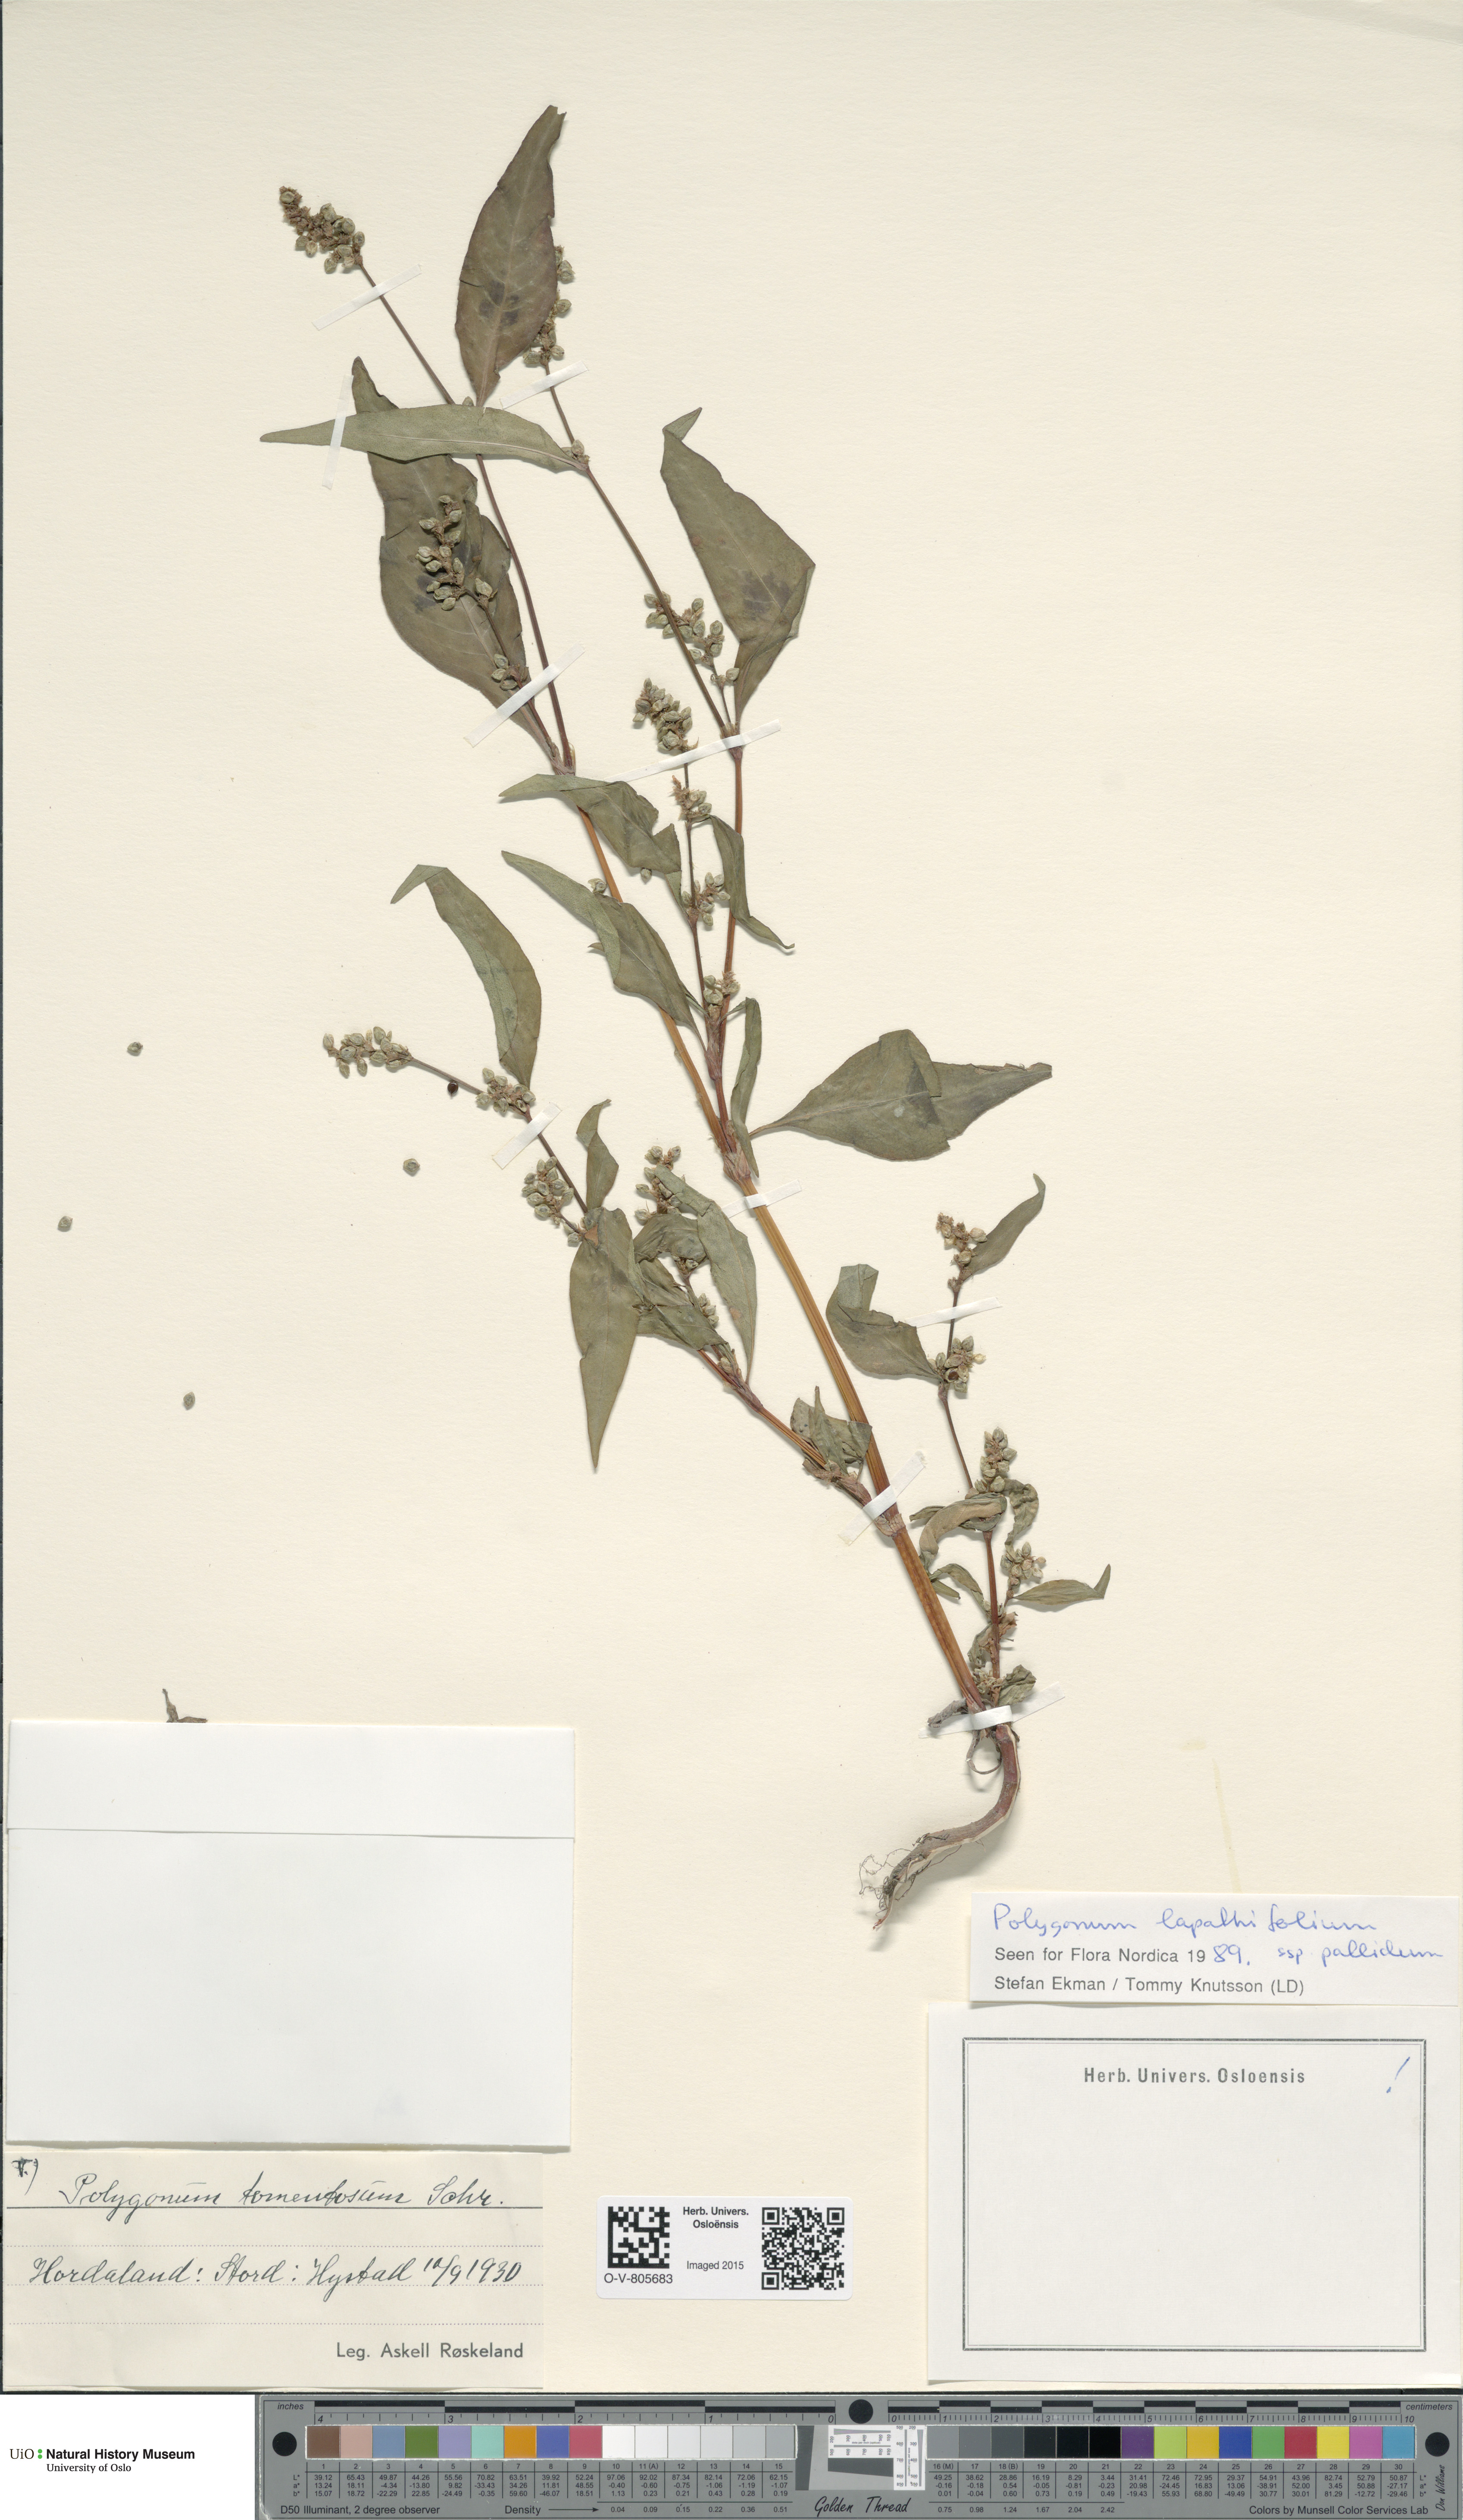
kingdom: Plantae
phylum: Tracheophyta
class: Magnoliopsida
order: Caryophyllales
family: Polygonaceae
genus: Persicaria
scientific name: Persicaria lapathifolia
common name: Curlytop knotweed
